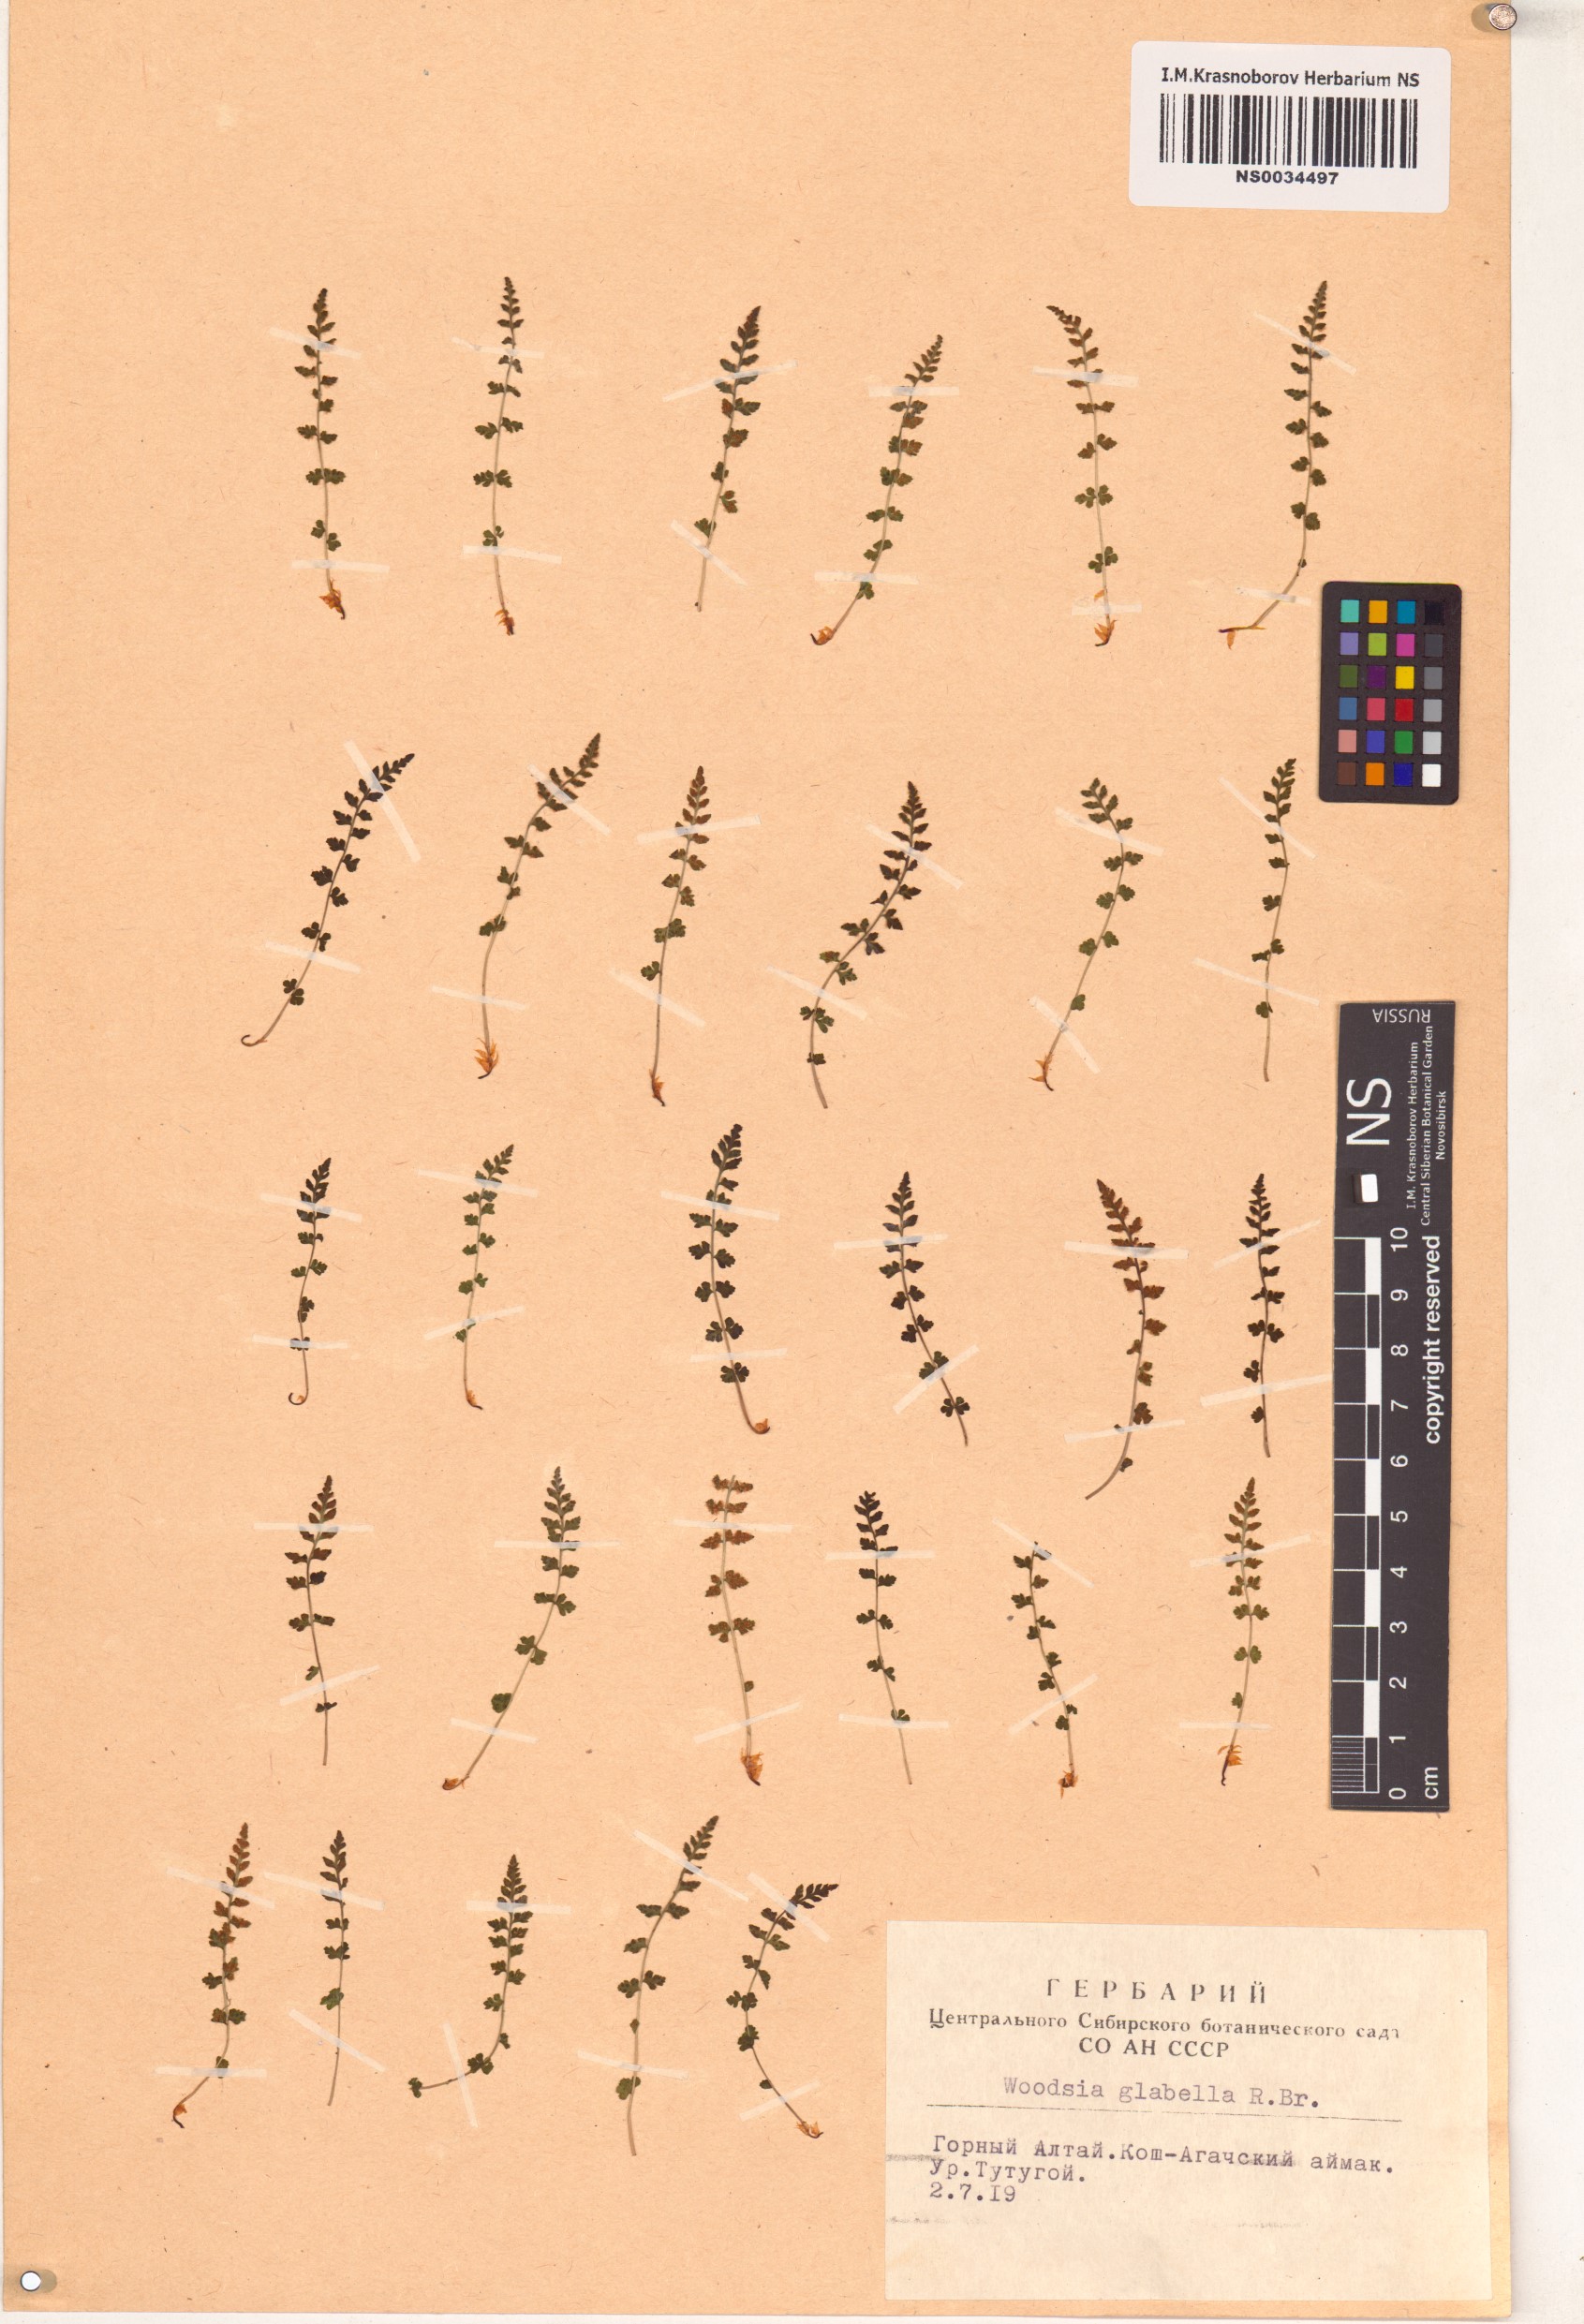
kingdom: Plantae
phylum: Tracheophyta
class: Polypodiopsida
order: Polypodiales
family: Woodsiaceae
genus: Woodsia
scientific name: Woodsia glabella
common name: Smooth woodsia
